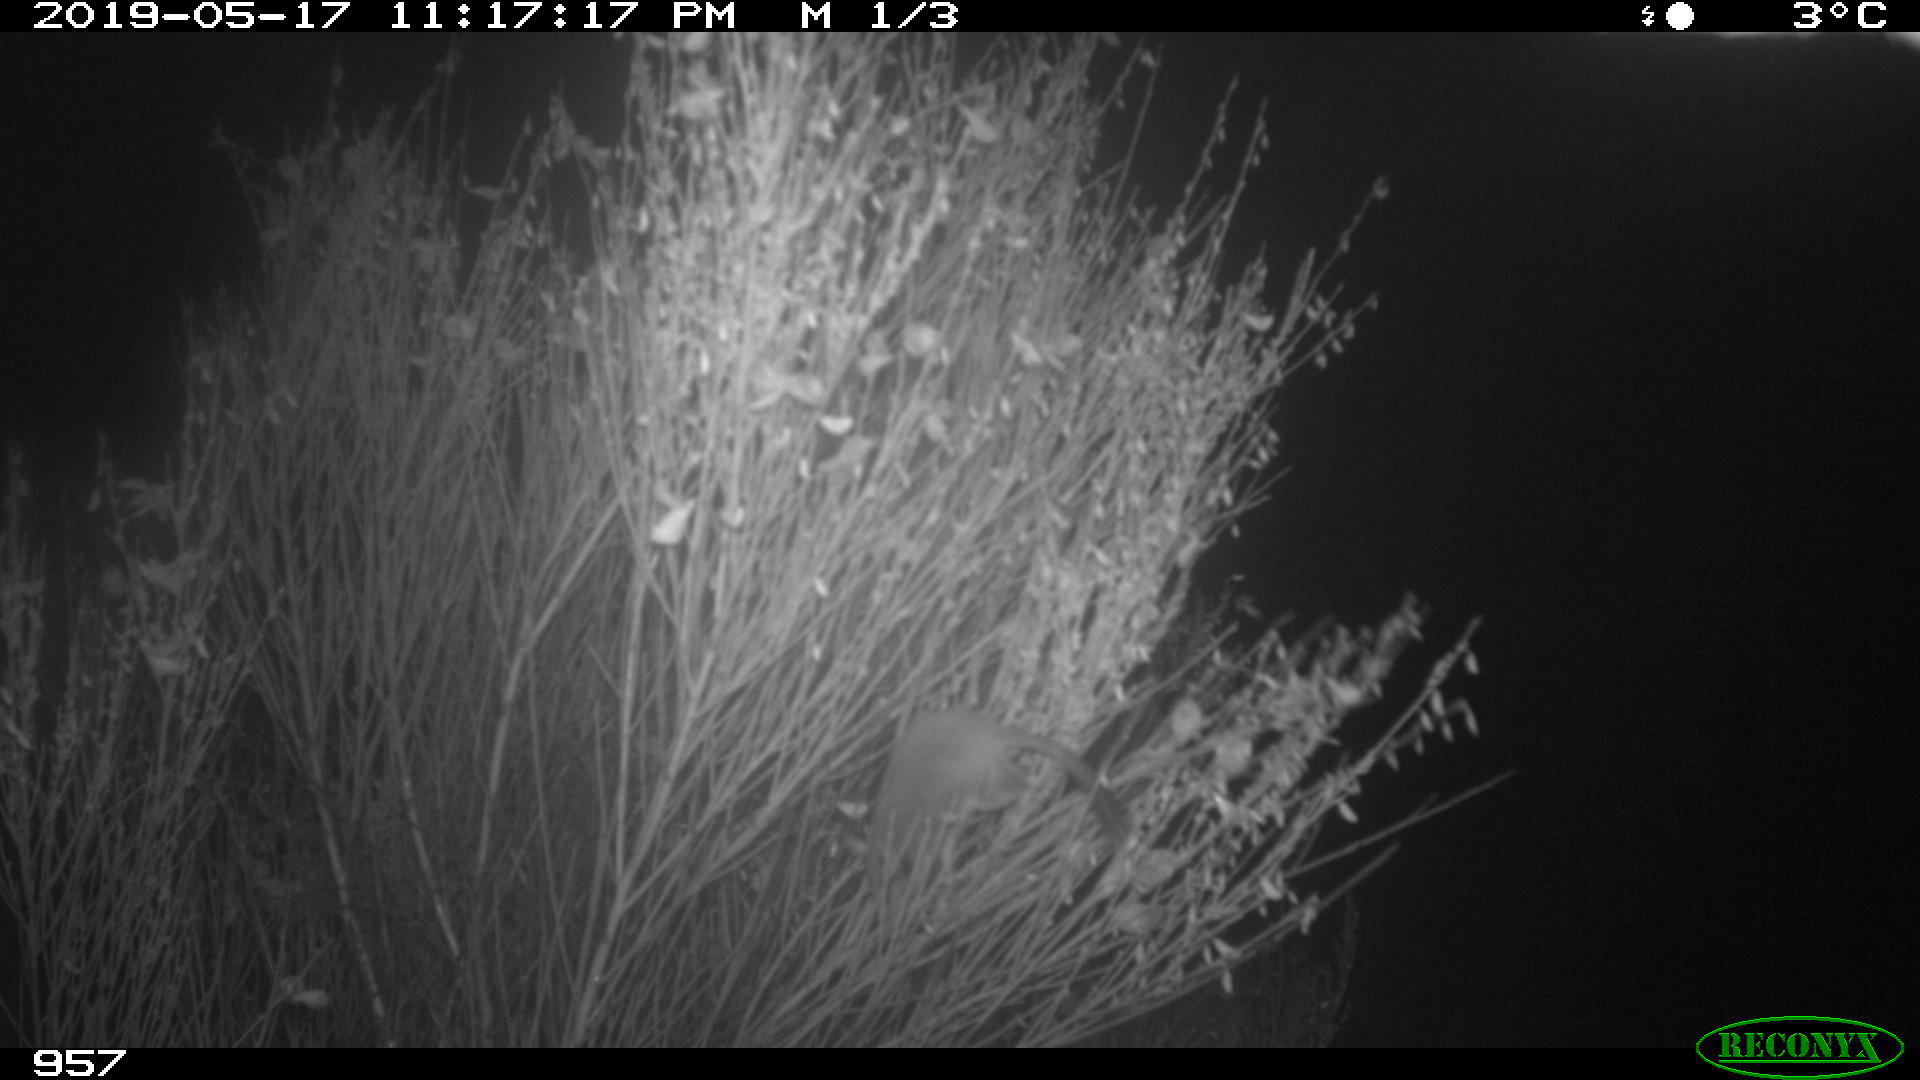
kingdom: Animalia
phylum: Chordata
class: Mammalia
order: Rodentia
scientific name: Rodentia
